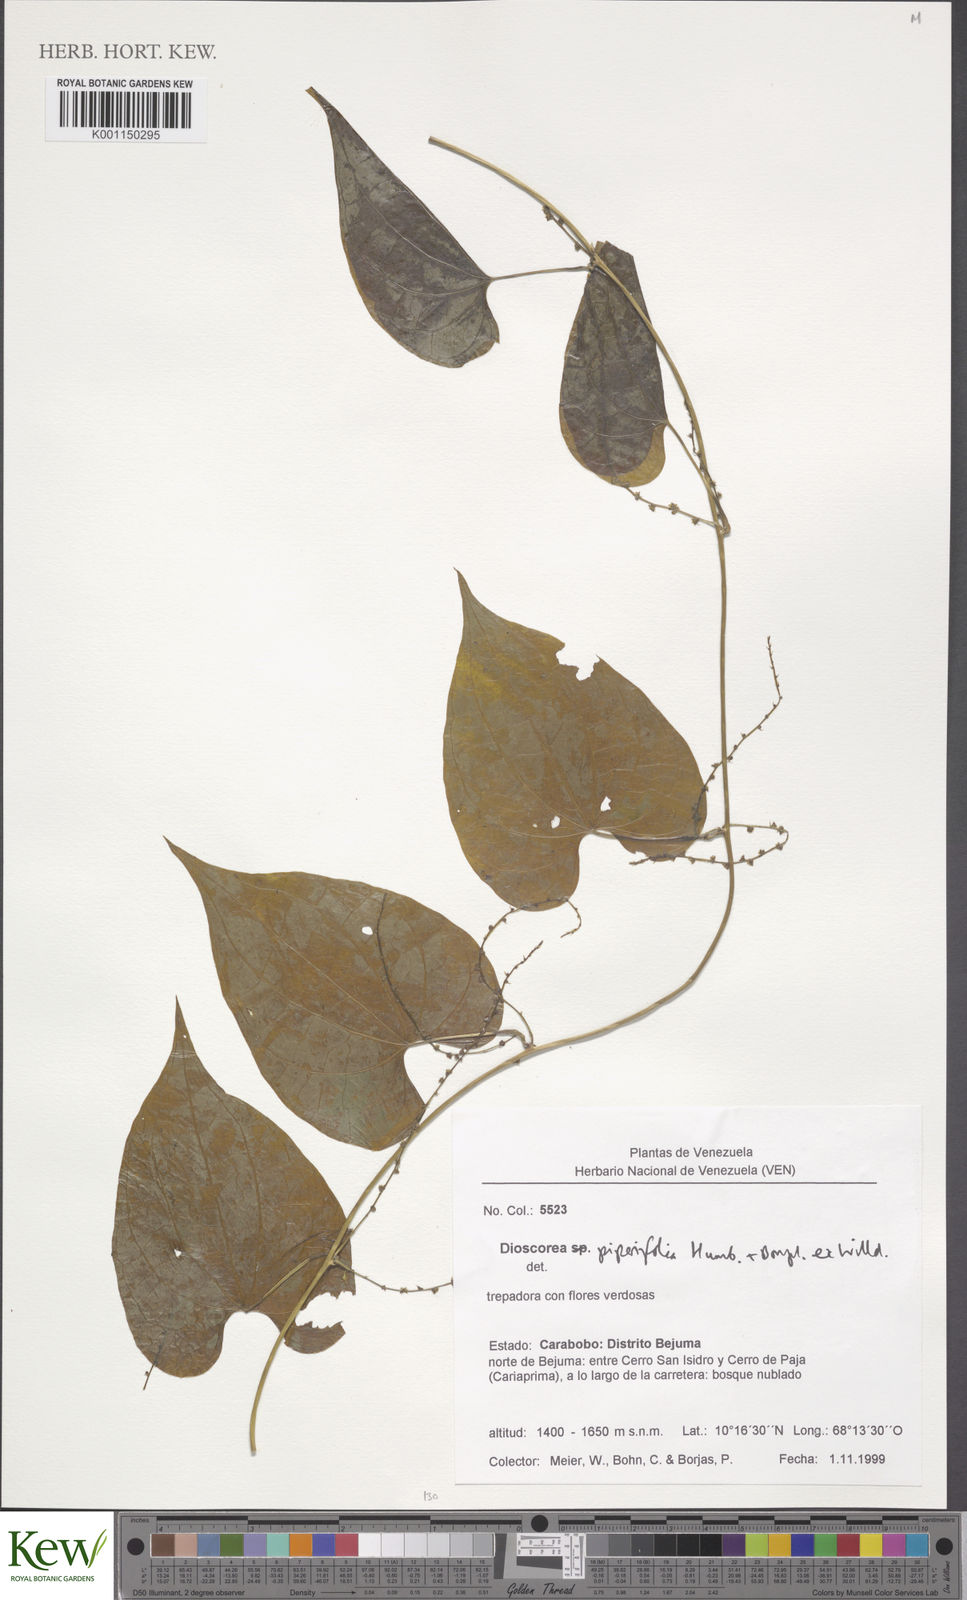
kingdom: Plantae
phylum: Tracheophyta
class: Liliopsida
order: Dioscoreales
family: Dioscoreaceae
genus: Dioscorea
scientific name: Dioscorea polygonoides
